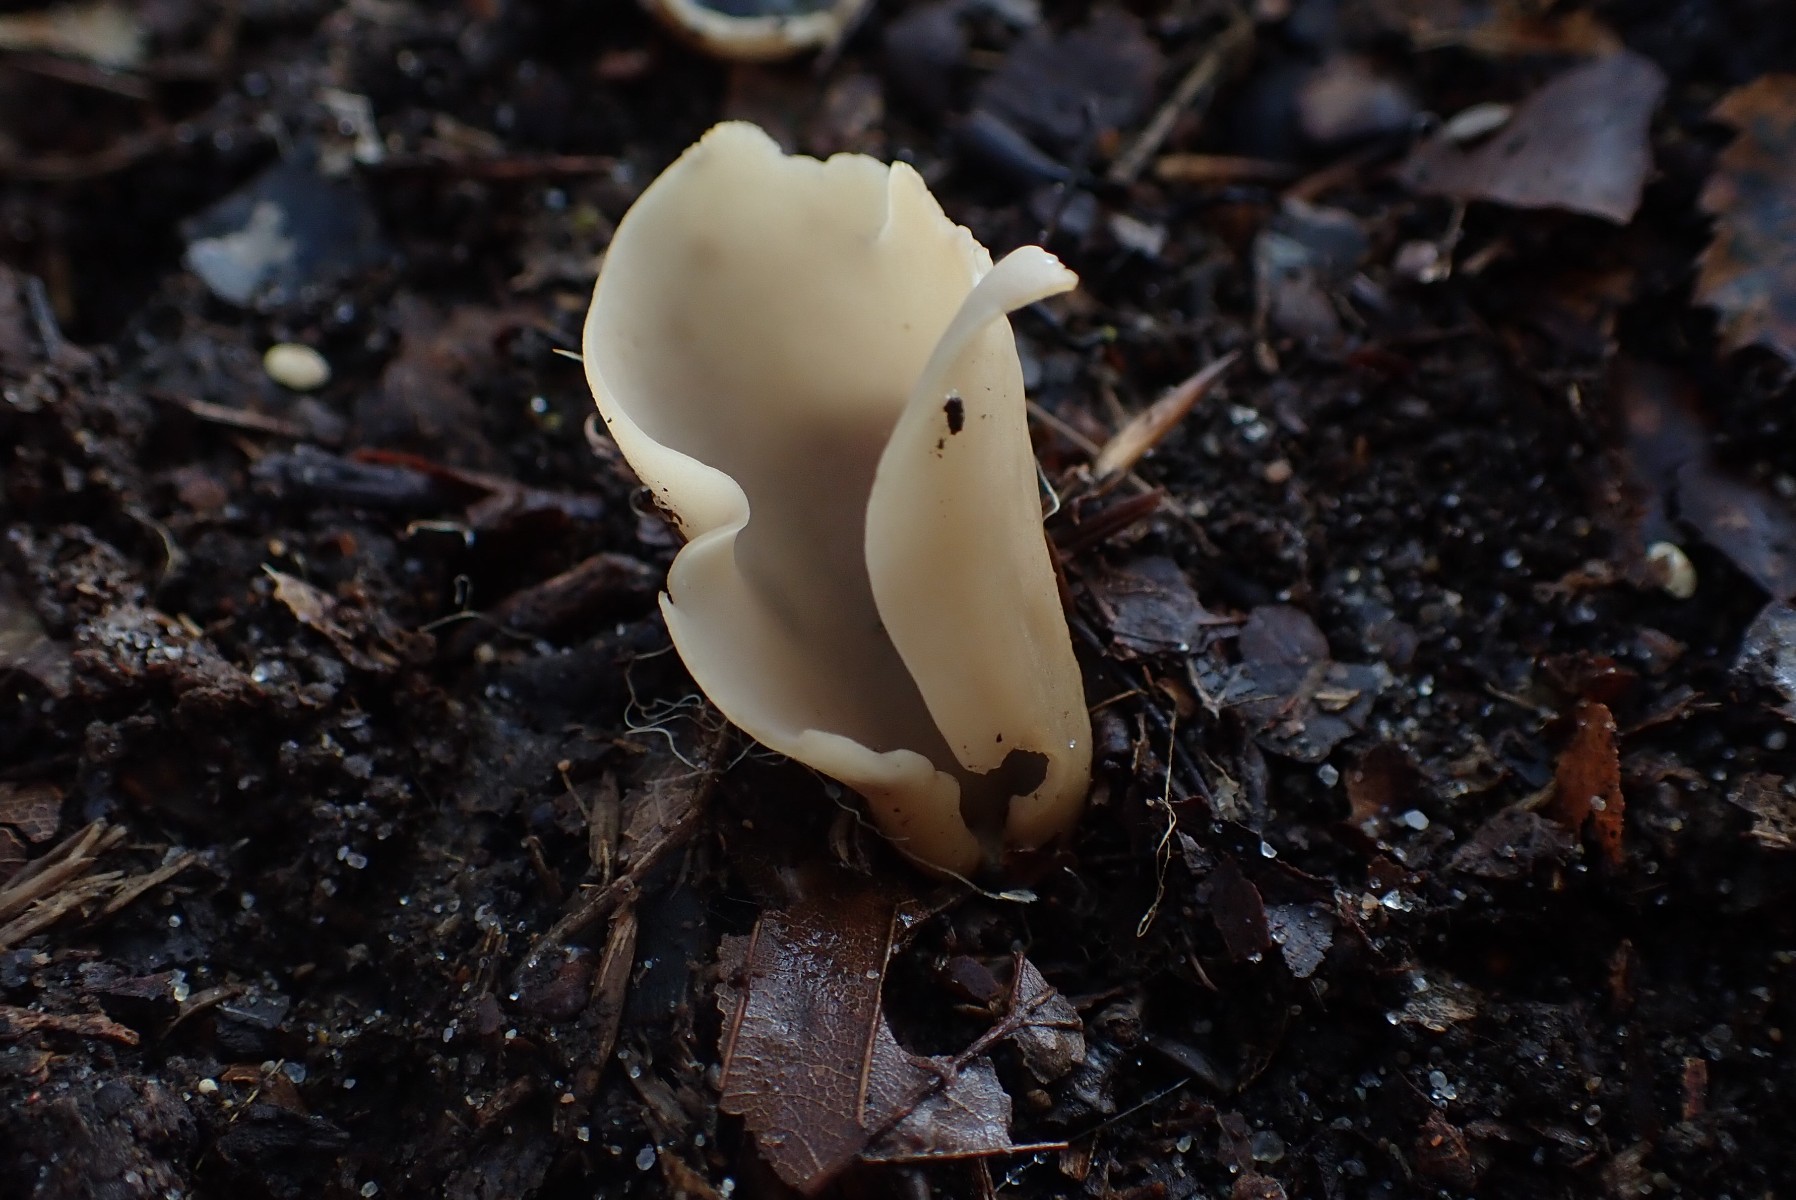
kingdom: Fungi
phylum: Ascomycota
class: Pezizomycetes
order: Pezizales
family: Otideaceae
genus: Otidea
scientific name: Otidea alutacea
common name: læder-ørebæger
